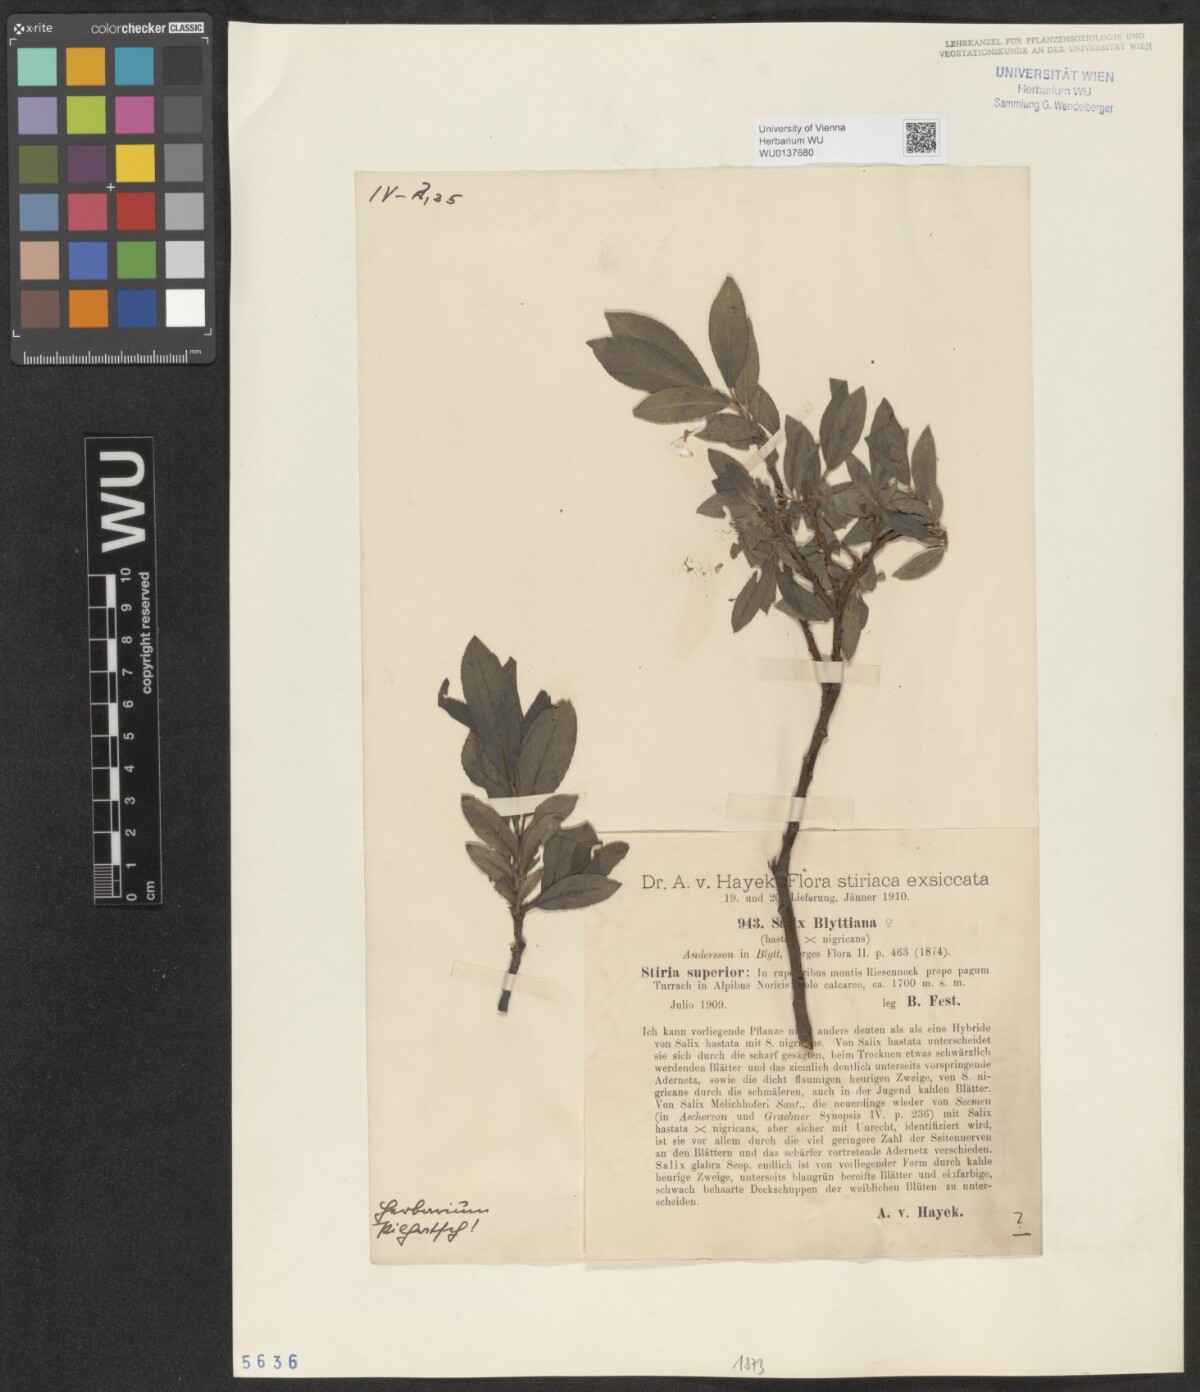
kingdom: Plantae
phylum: Tracheophyta
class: Magnoliopsida
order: Malpighiales
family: Salicaceae
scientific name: Salicaceae
